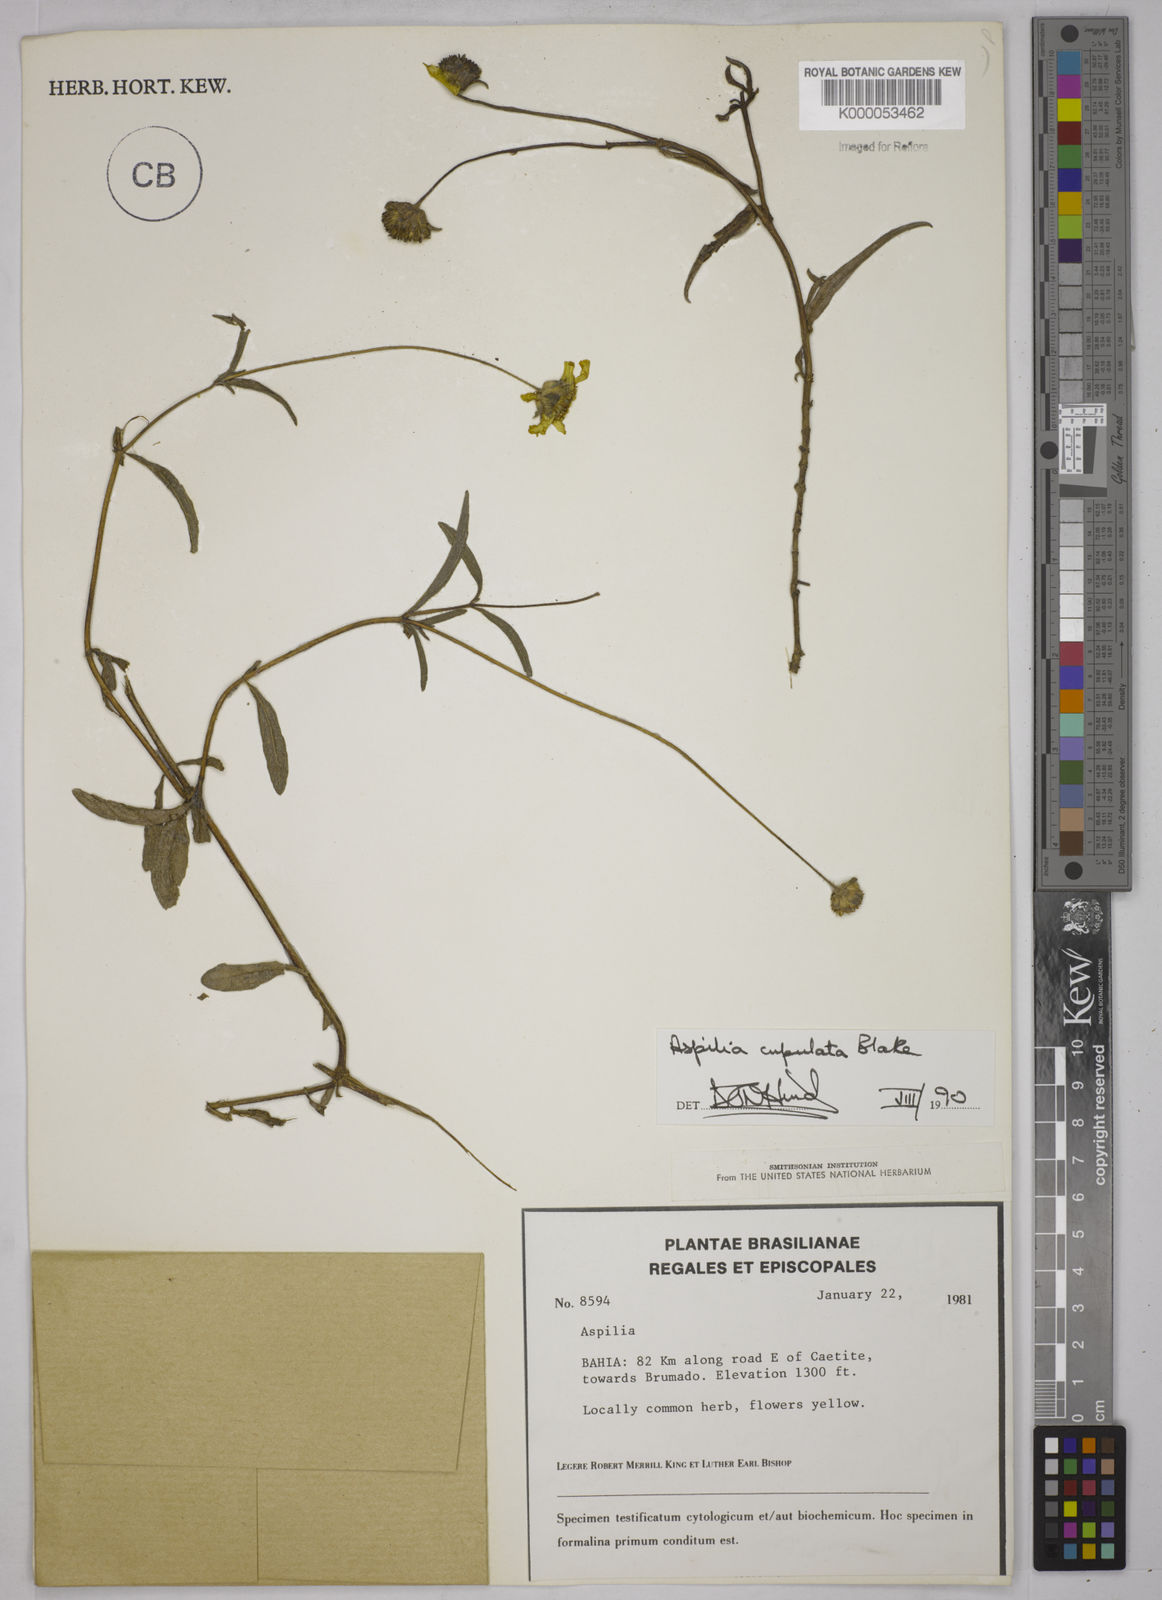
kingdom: Plantae
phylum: Tracheophyta
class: Magnoliopsida
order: Asterales
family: Asteraceae
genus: Aspilia
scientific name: Aspilia
